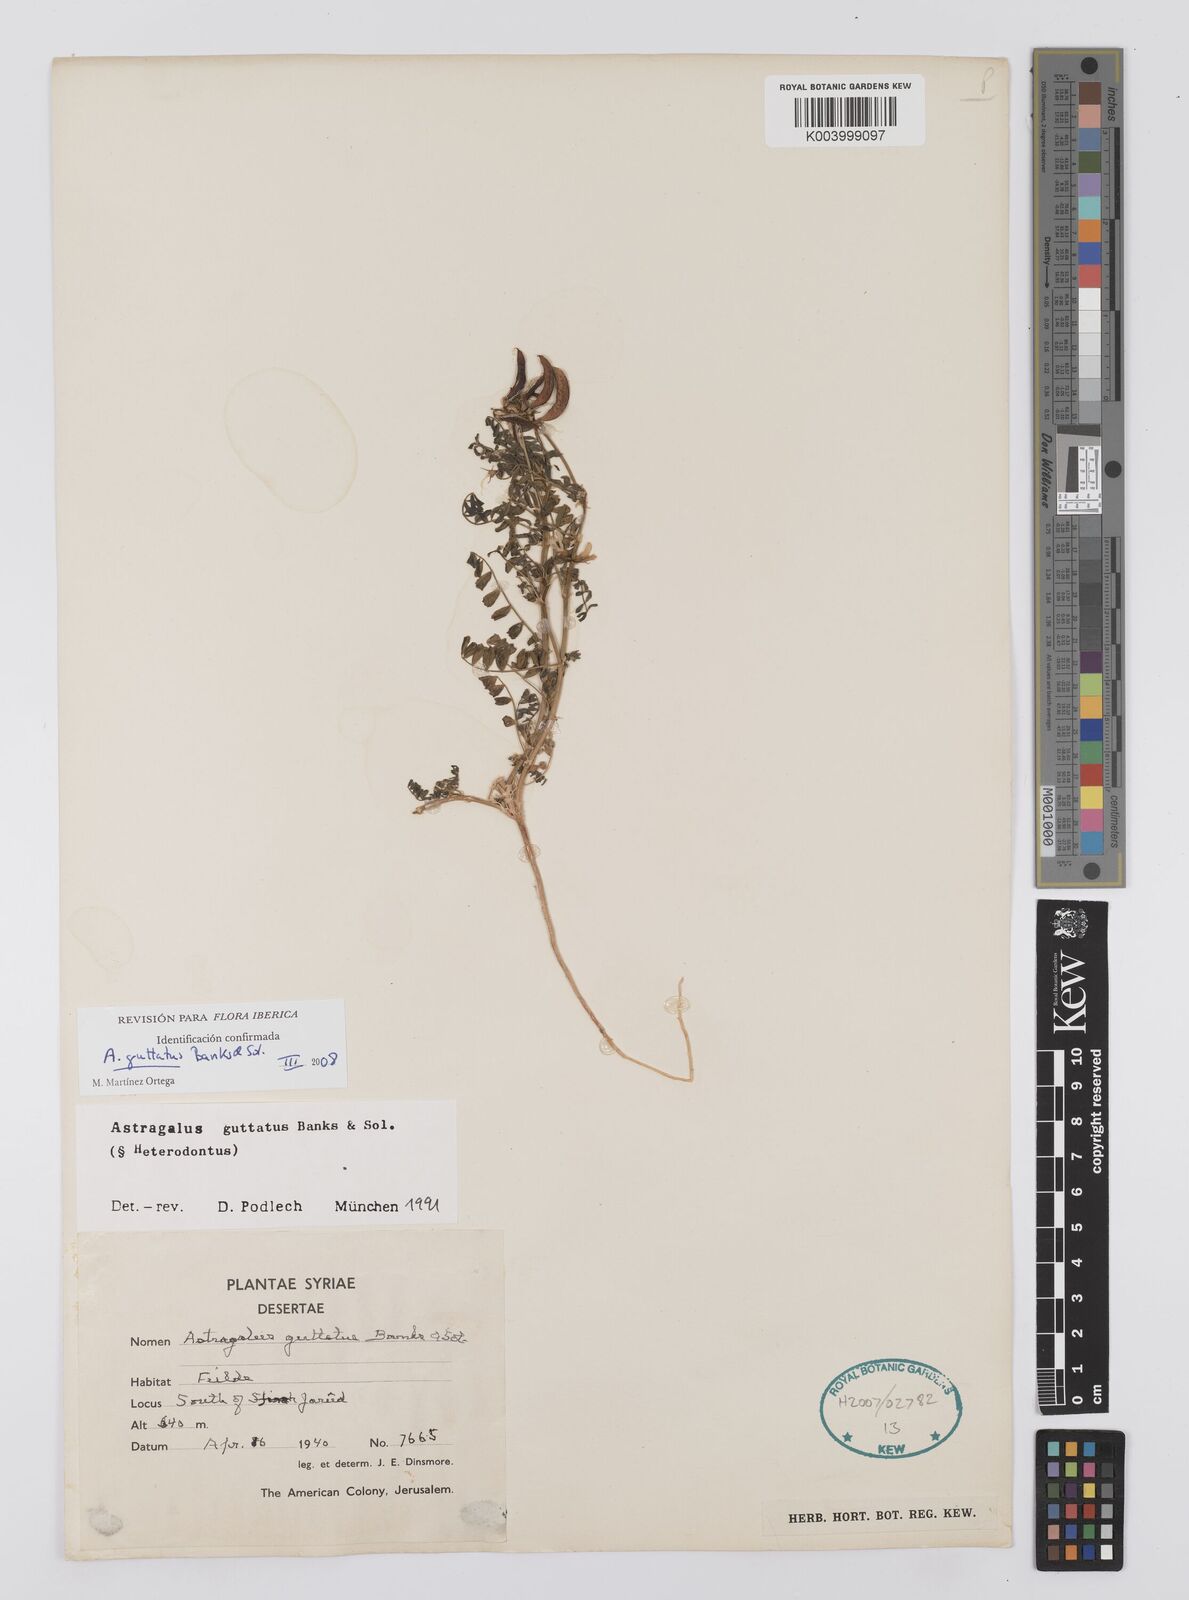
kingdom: Plantae
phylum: Tracheophyta
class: Magnoliopsida
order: Fabales
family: Fabaceae
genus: Astragalus
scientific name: Astragalus guttatus
